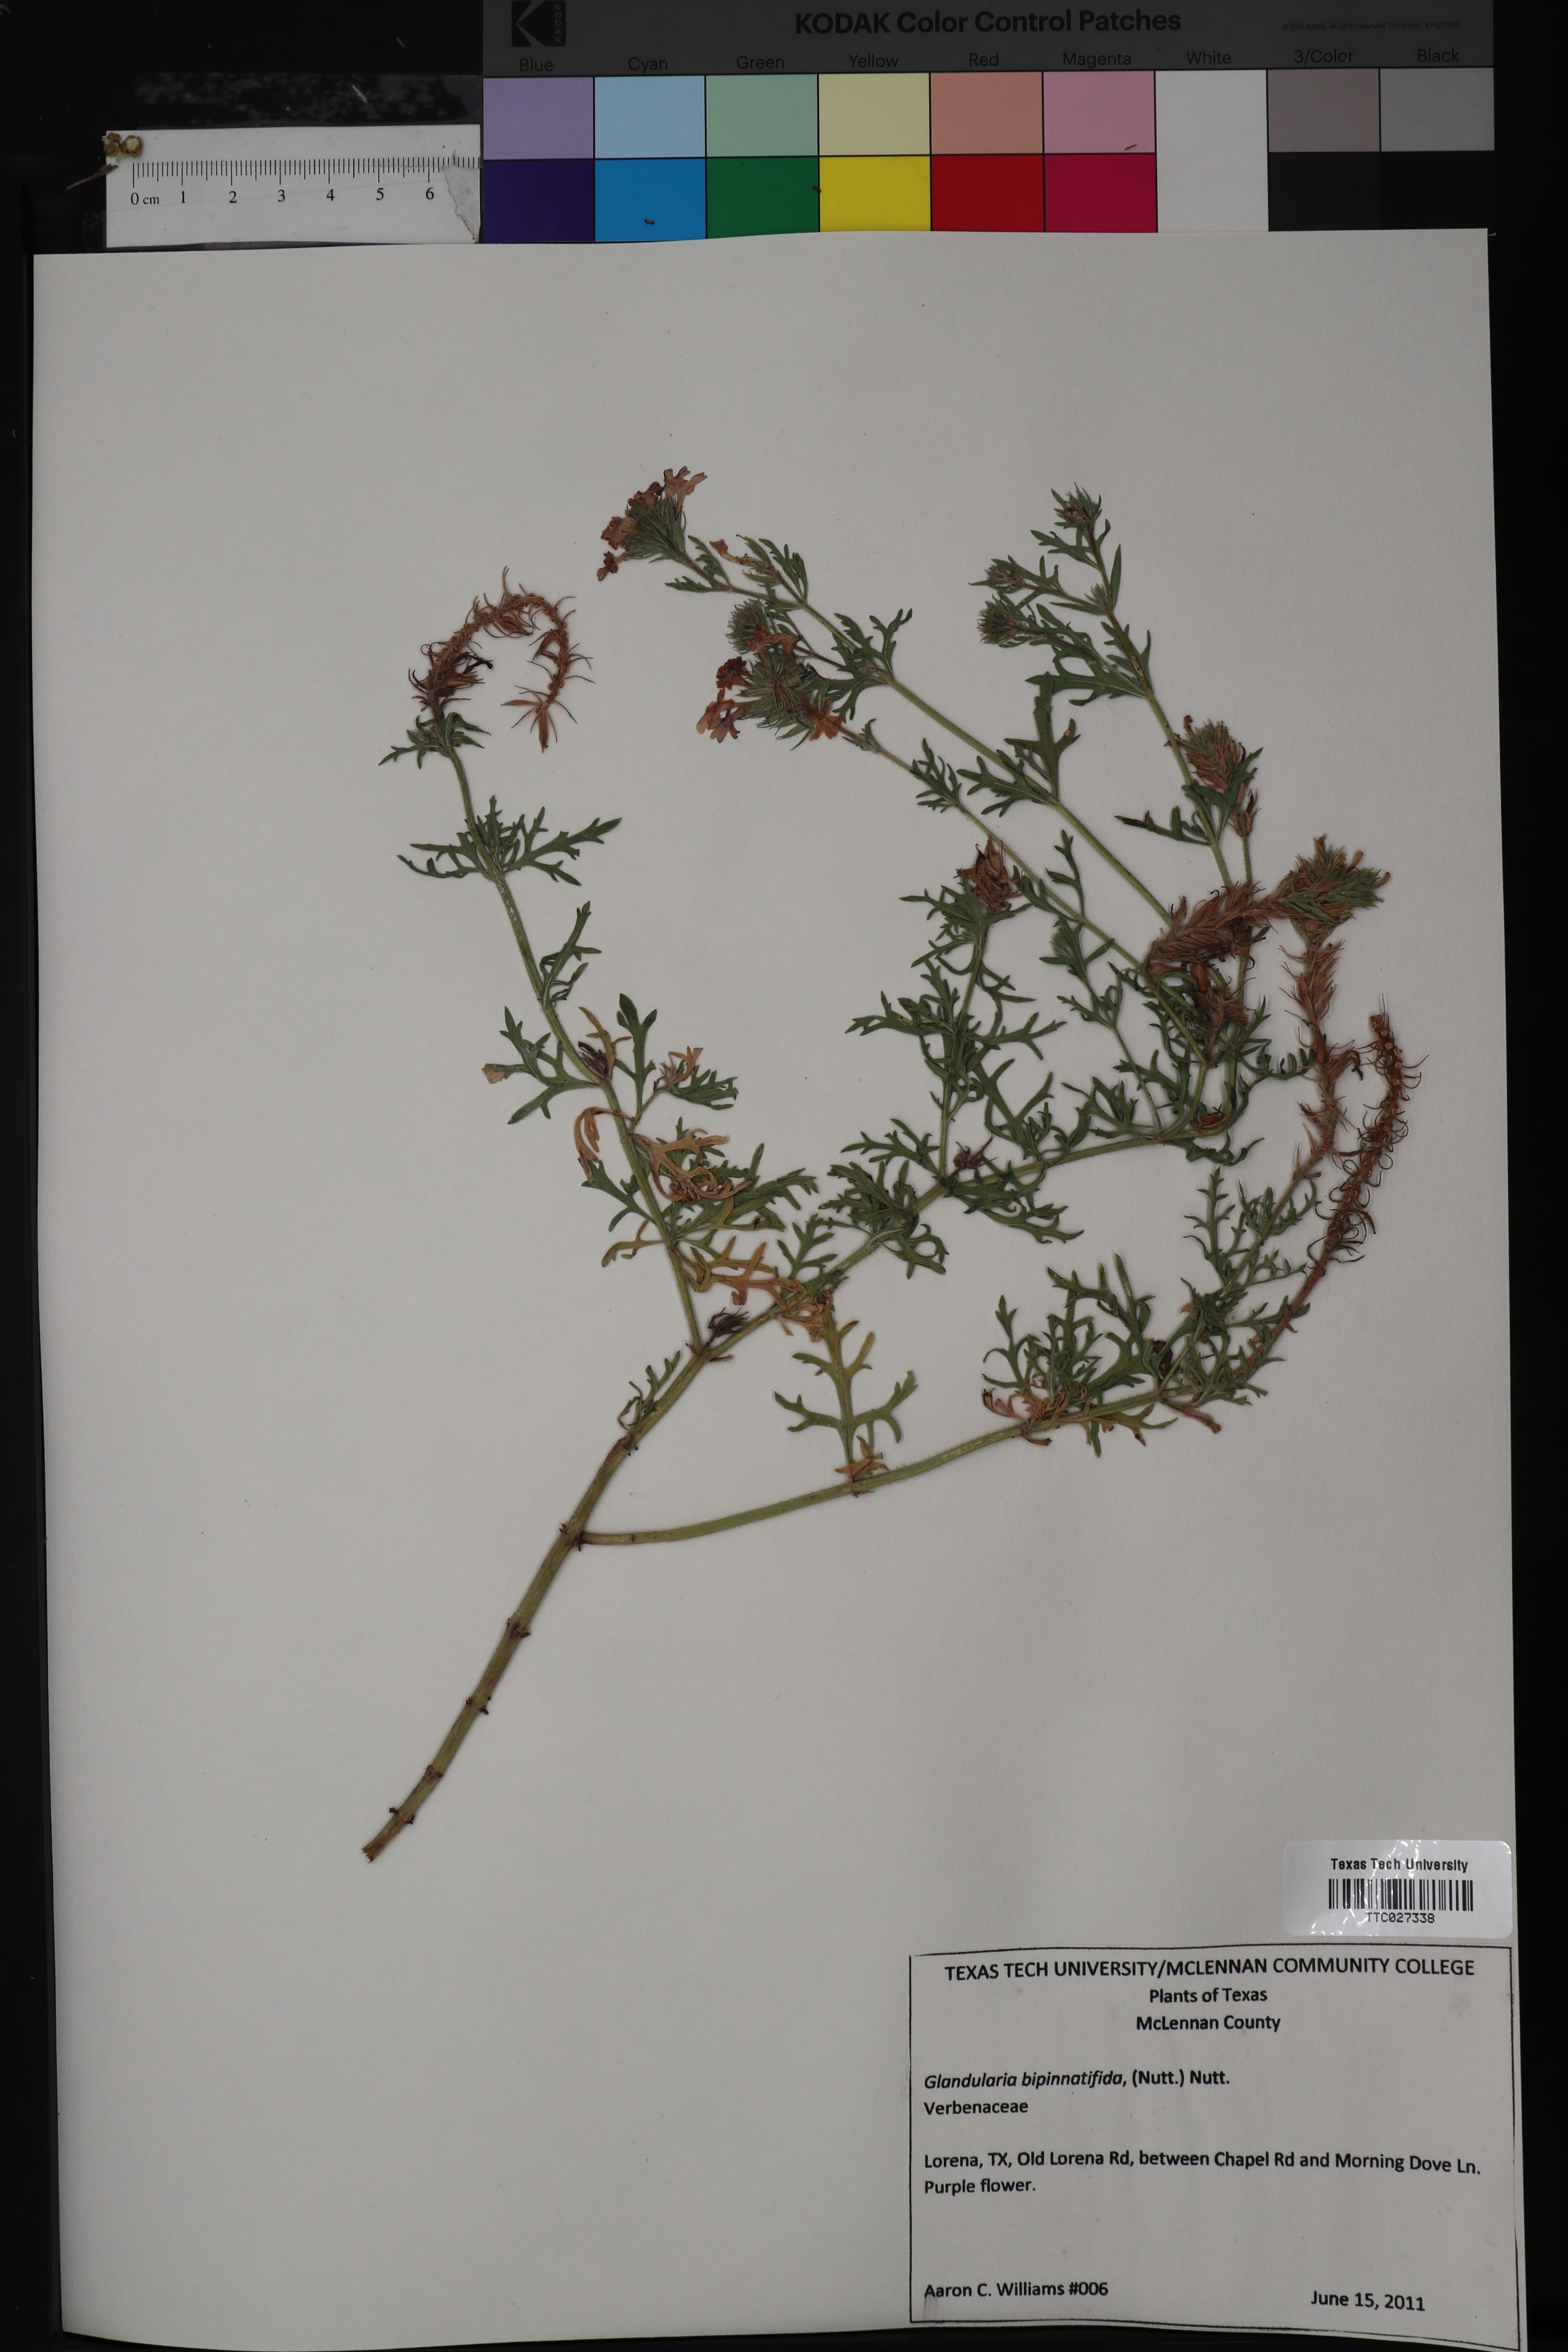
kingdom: Plantae
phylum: Tracheophyta
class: Magnoliopsida
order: Lamiales
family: Verbenaceae
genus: Verbena
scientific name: Verbena bipinnatifida
